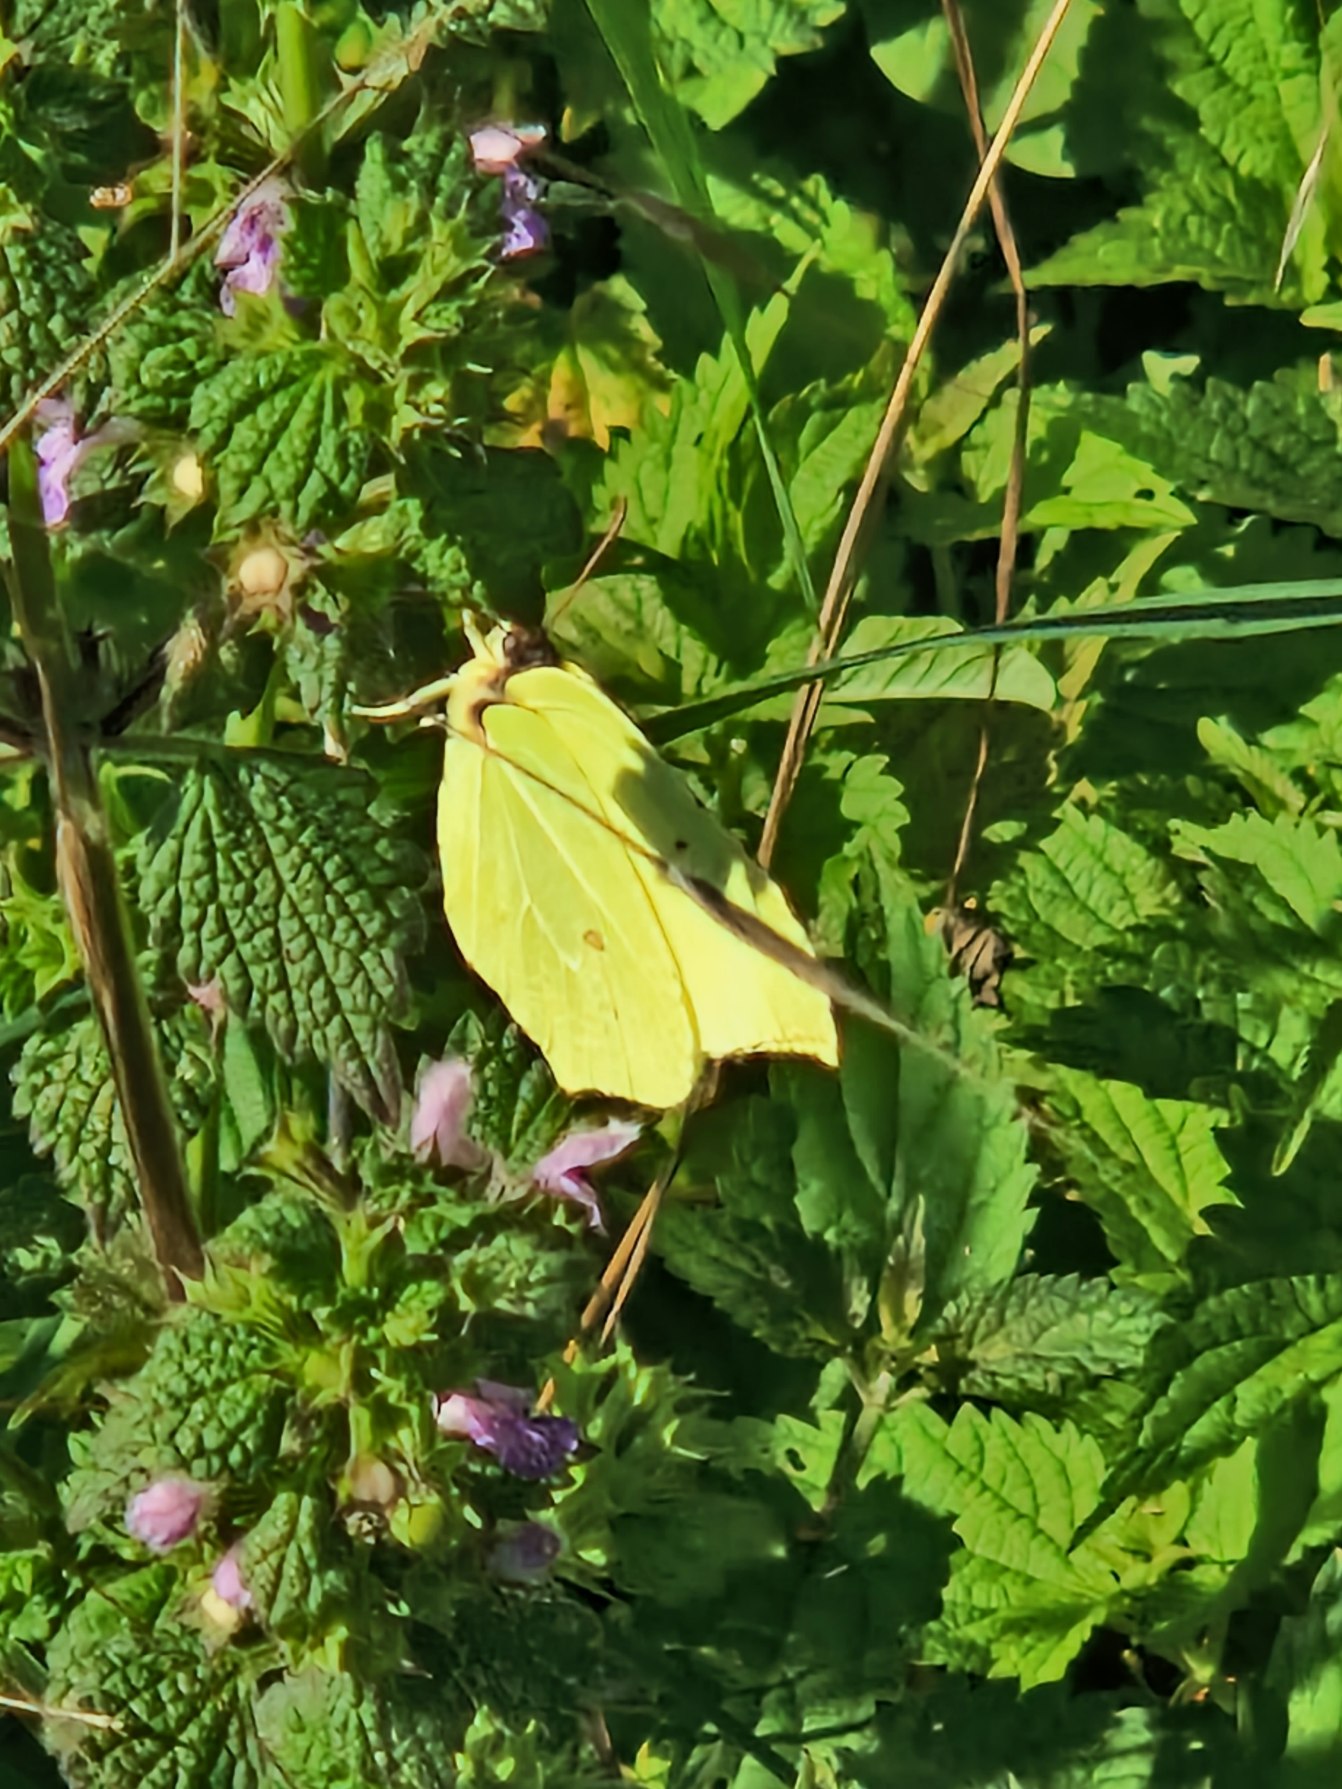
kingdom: Animalia
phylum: Arthropoda
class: Insecta
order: Lepidoptera
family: Pieridae
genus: Gonepteryx
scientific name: Gonepteryx rhamni
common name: Citronsommerfugl
